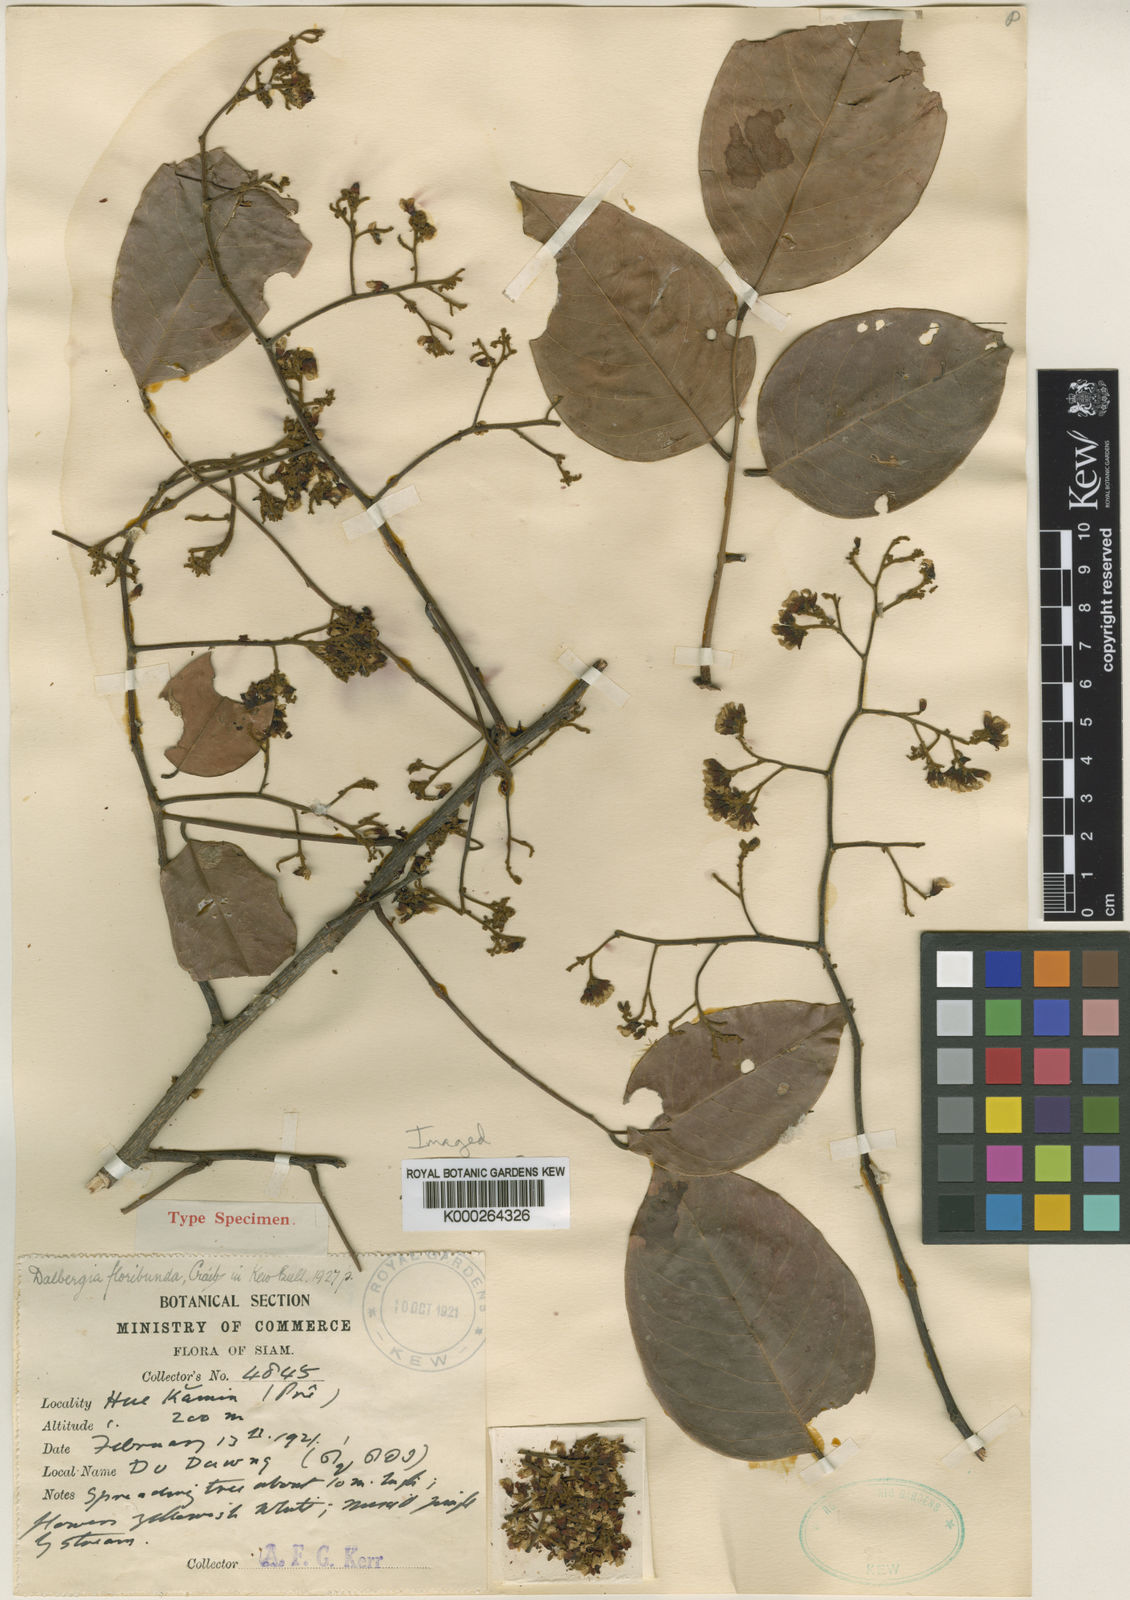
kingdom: Plantae
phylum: Tracheophyta
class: Magnoliopsida
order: Fabales
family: Fabaceae
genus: Dalbergia
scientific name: Dalbergia ovata
